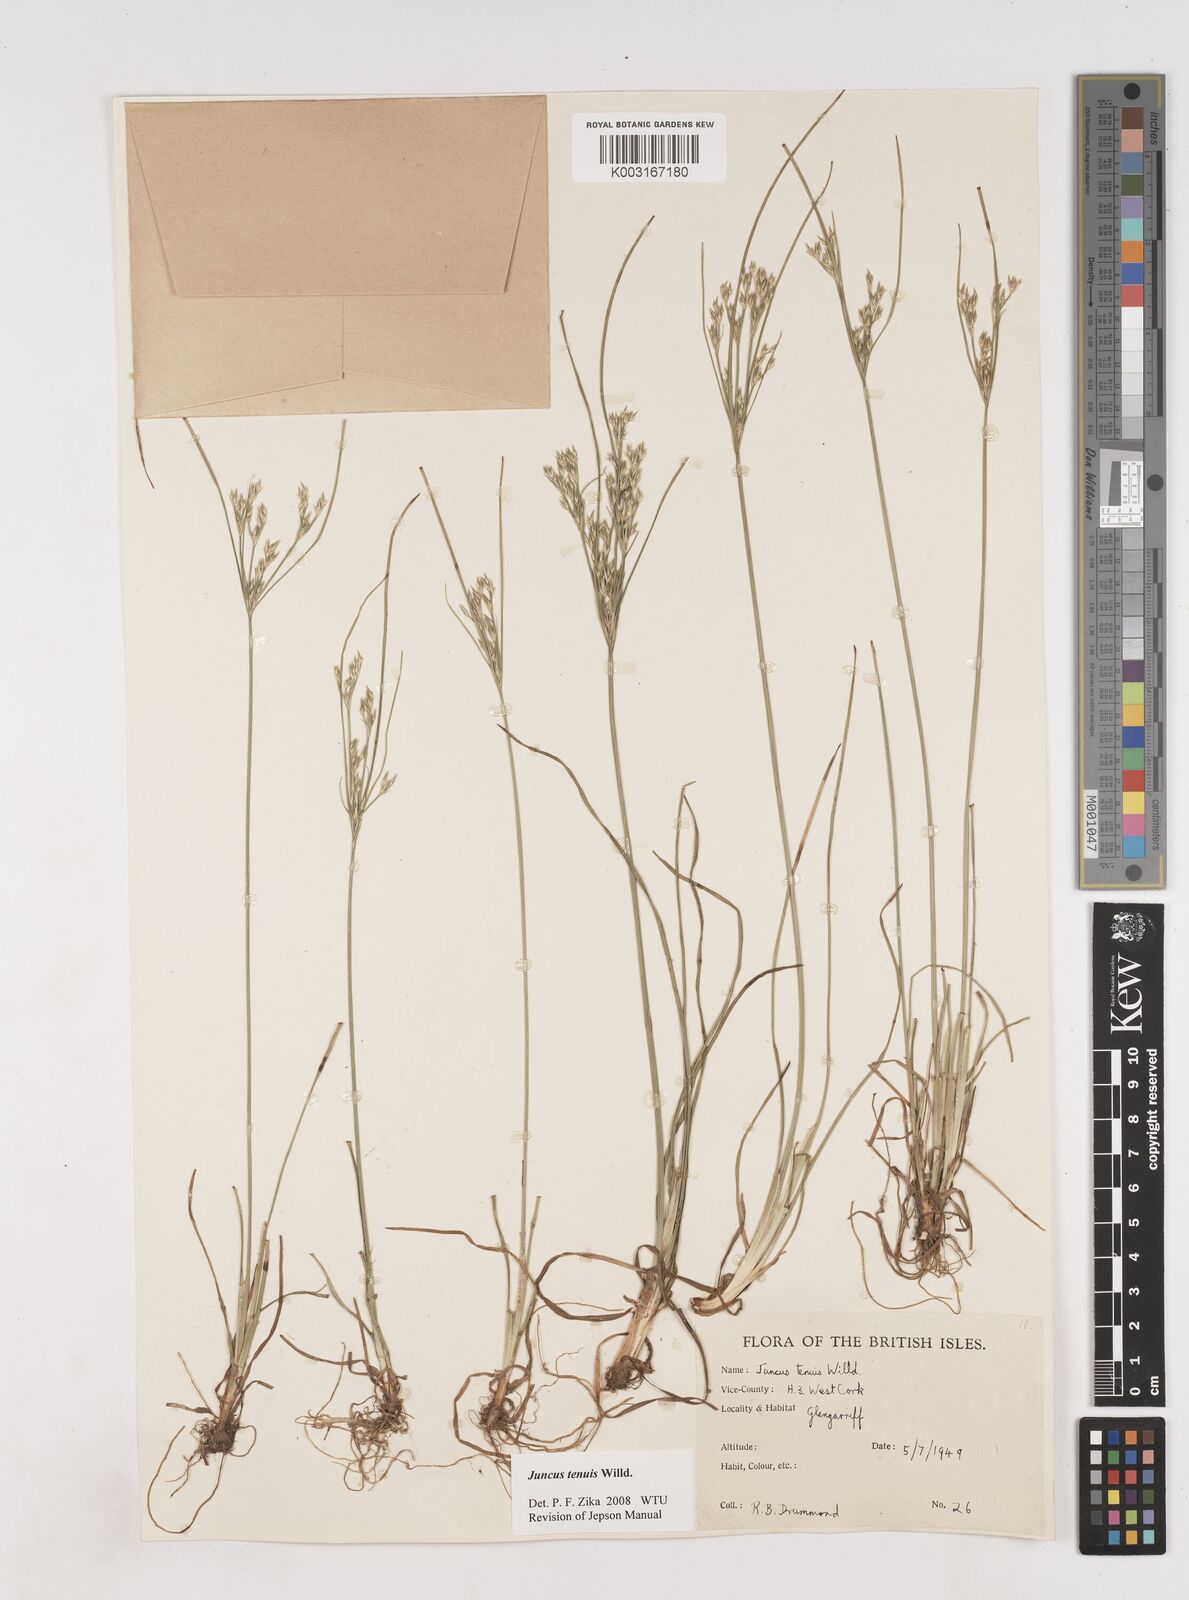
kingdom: Plantae
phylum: Tracheophyta
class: Liliopsida
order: Poales
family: Juncaceae
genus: Juncus
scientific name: Juncus tenuis
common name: Slender rush
